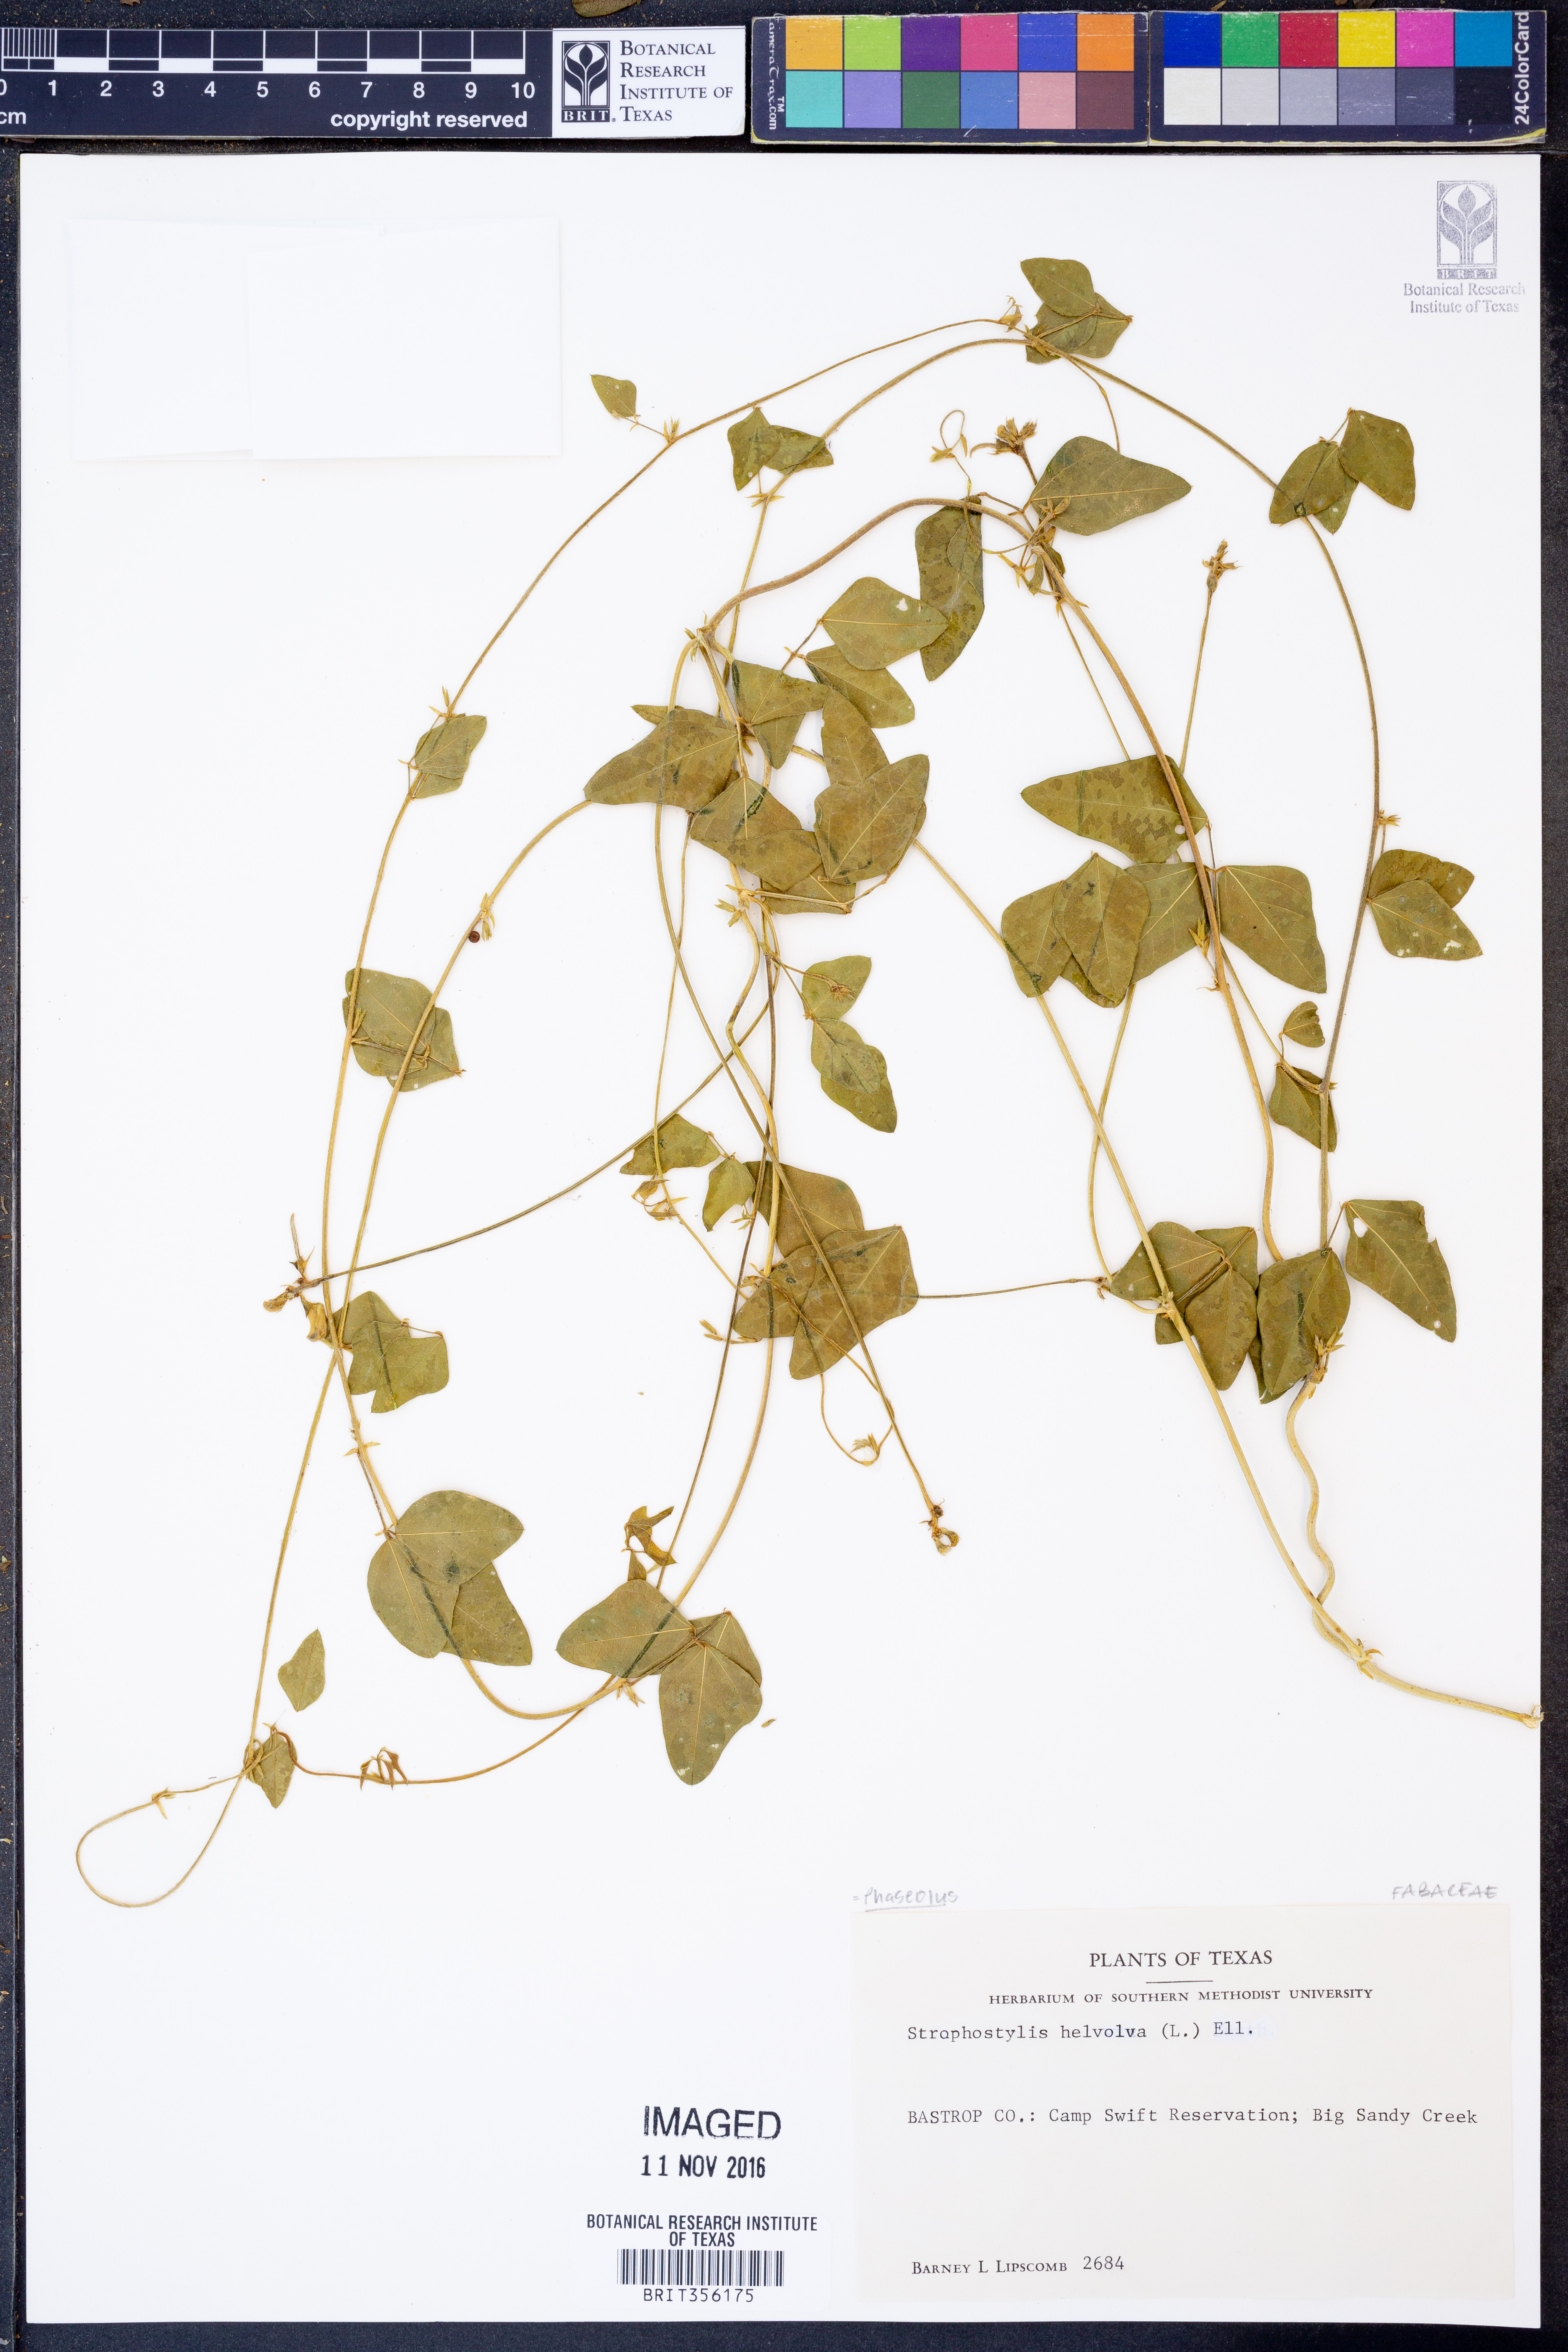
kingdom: Plantae
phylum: Tracheophyta
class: Magnoliopsida
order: Fabales
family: Fabaceae
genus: Strophostyles
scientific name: Strophostyles helvola
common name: Trailing wild bean
